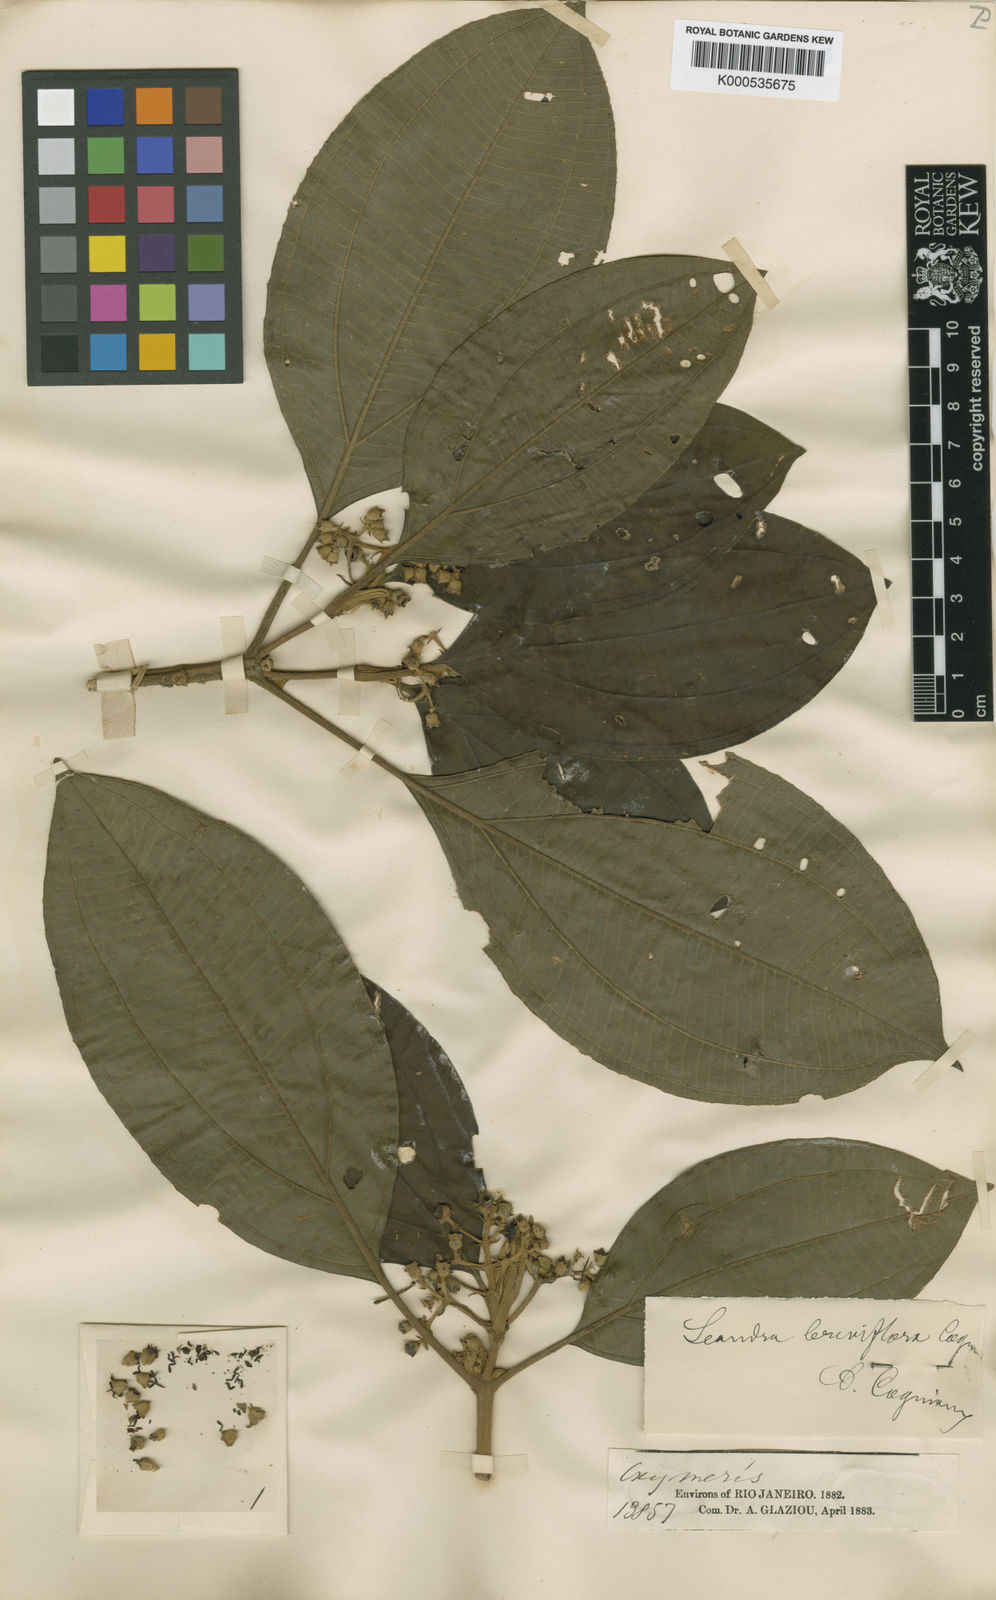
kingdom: Plantae
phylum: Tracheophyta
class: Magnoliopsida
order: Myrtales
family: Melastomataceae
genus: Miconia
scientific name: Miconia breviflora
